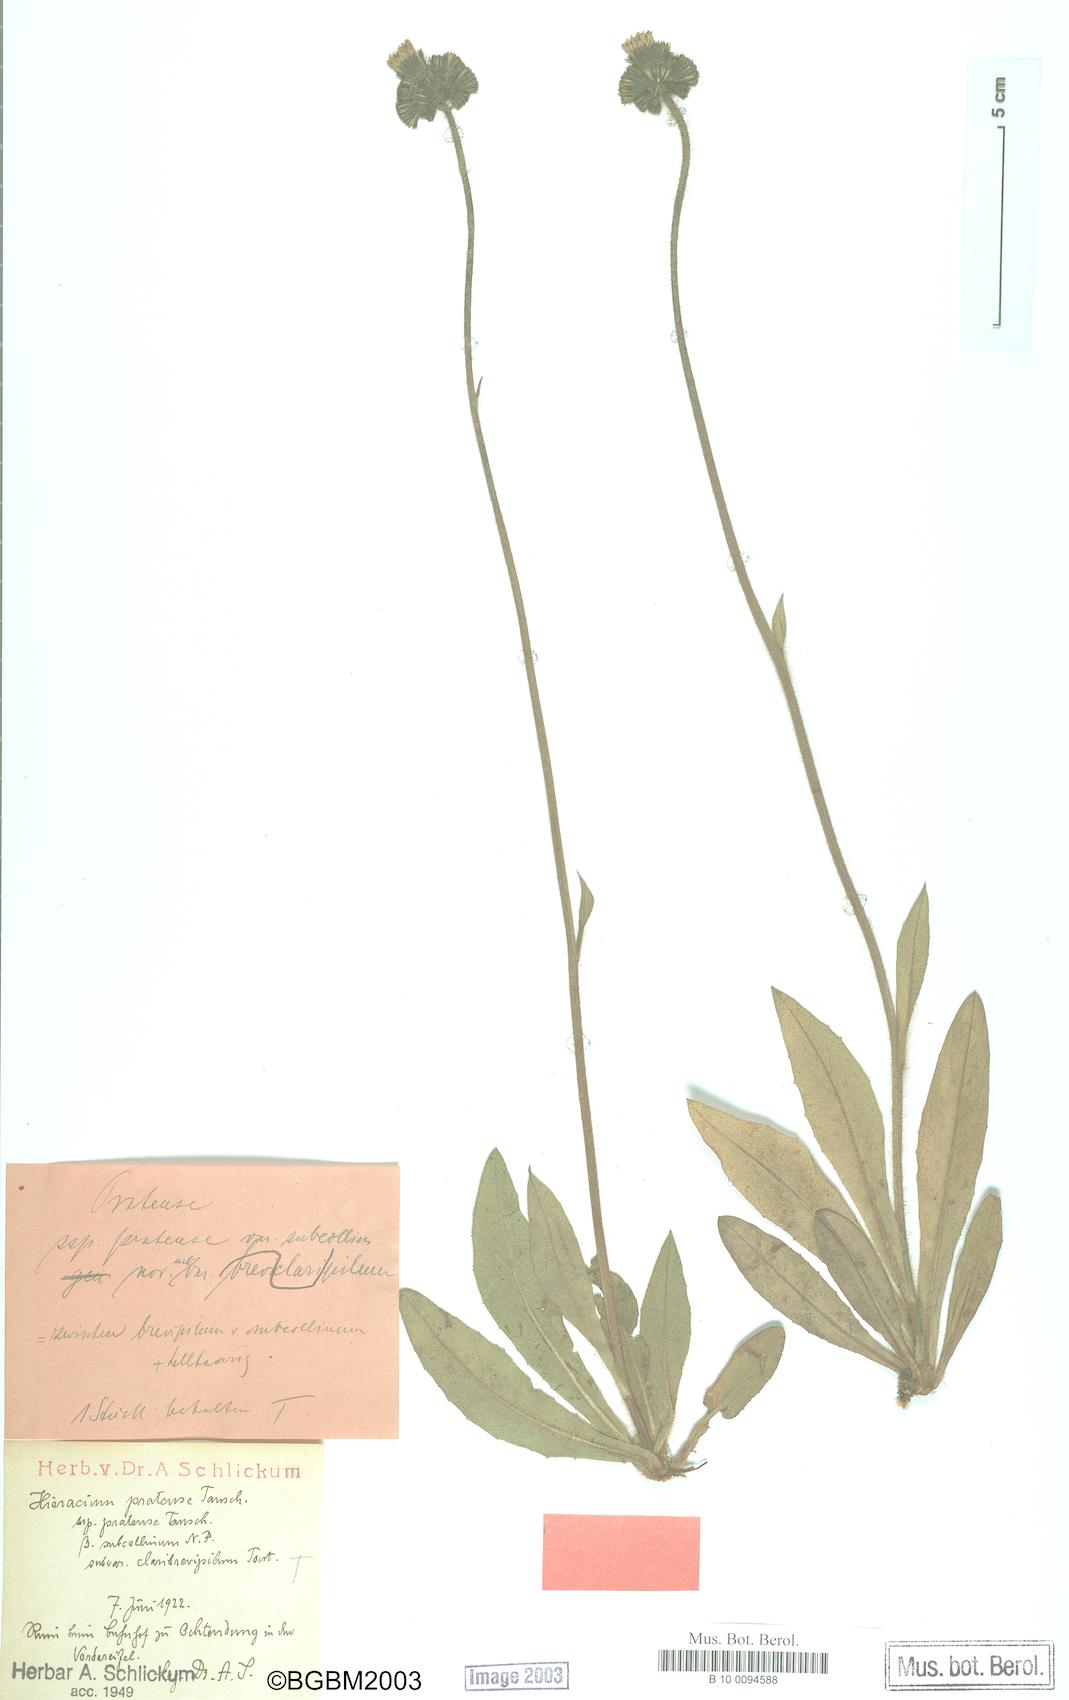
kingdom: Plantae
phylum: Tracheophyta
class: Magnoliopsida
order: Asterales
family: Asteraceae
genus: Pilosella
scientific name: Pilosella caespitosa
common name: Yellow fox-and-cubs
